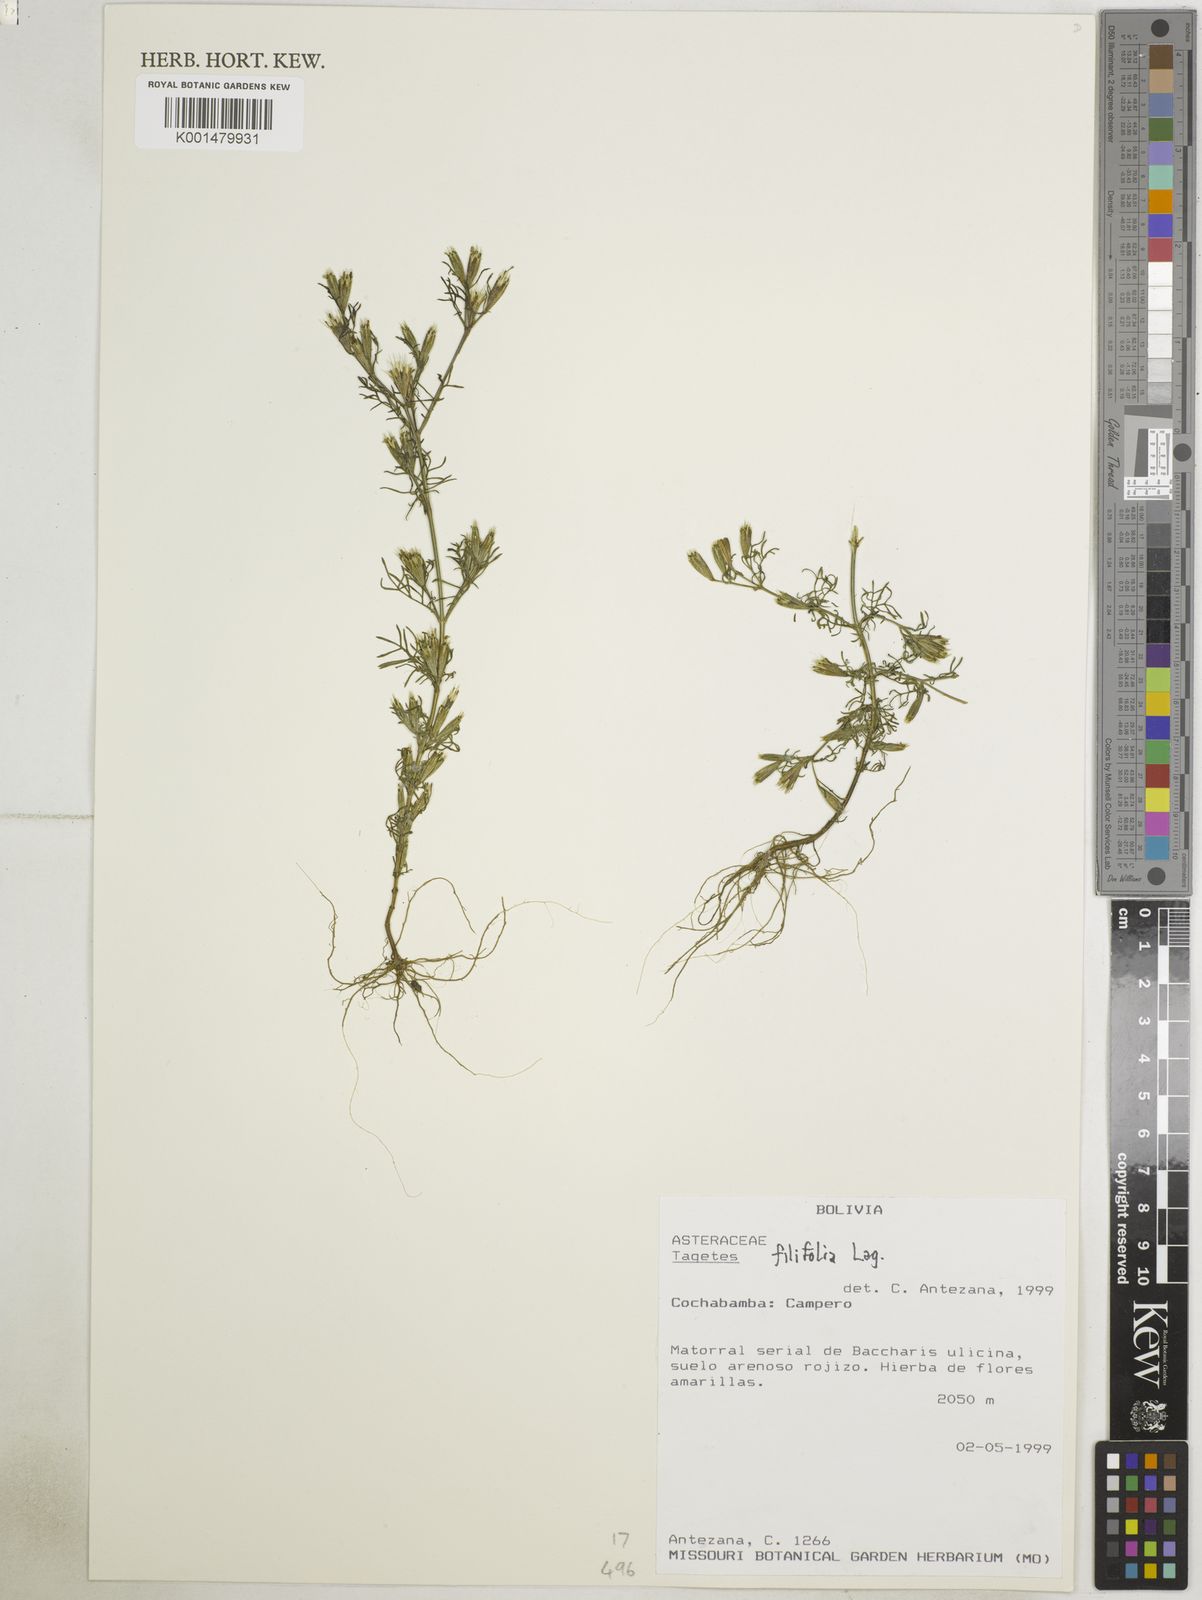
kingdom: Plantae
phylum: Tracheophyta
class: Magnoliopsida
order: Asterales
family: Asteraceae
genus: Tagetes
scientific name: Tagetes filifolia
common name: Lesser marigold
